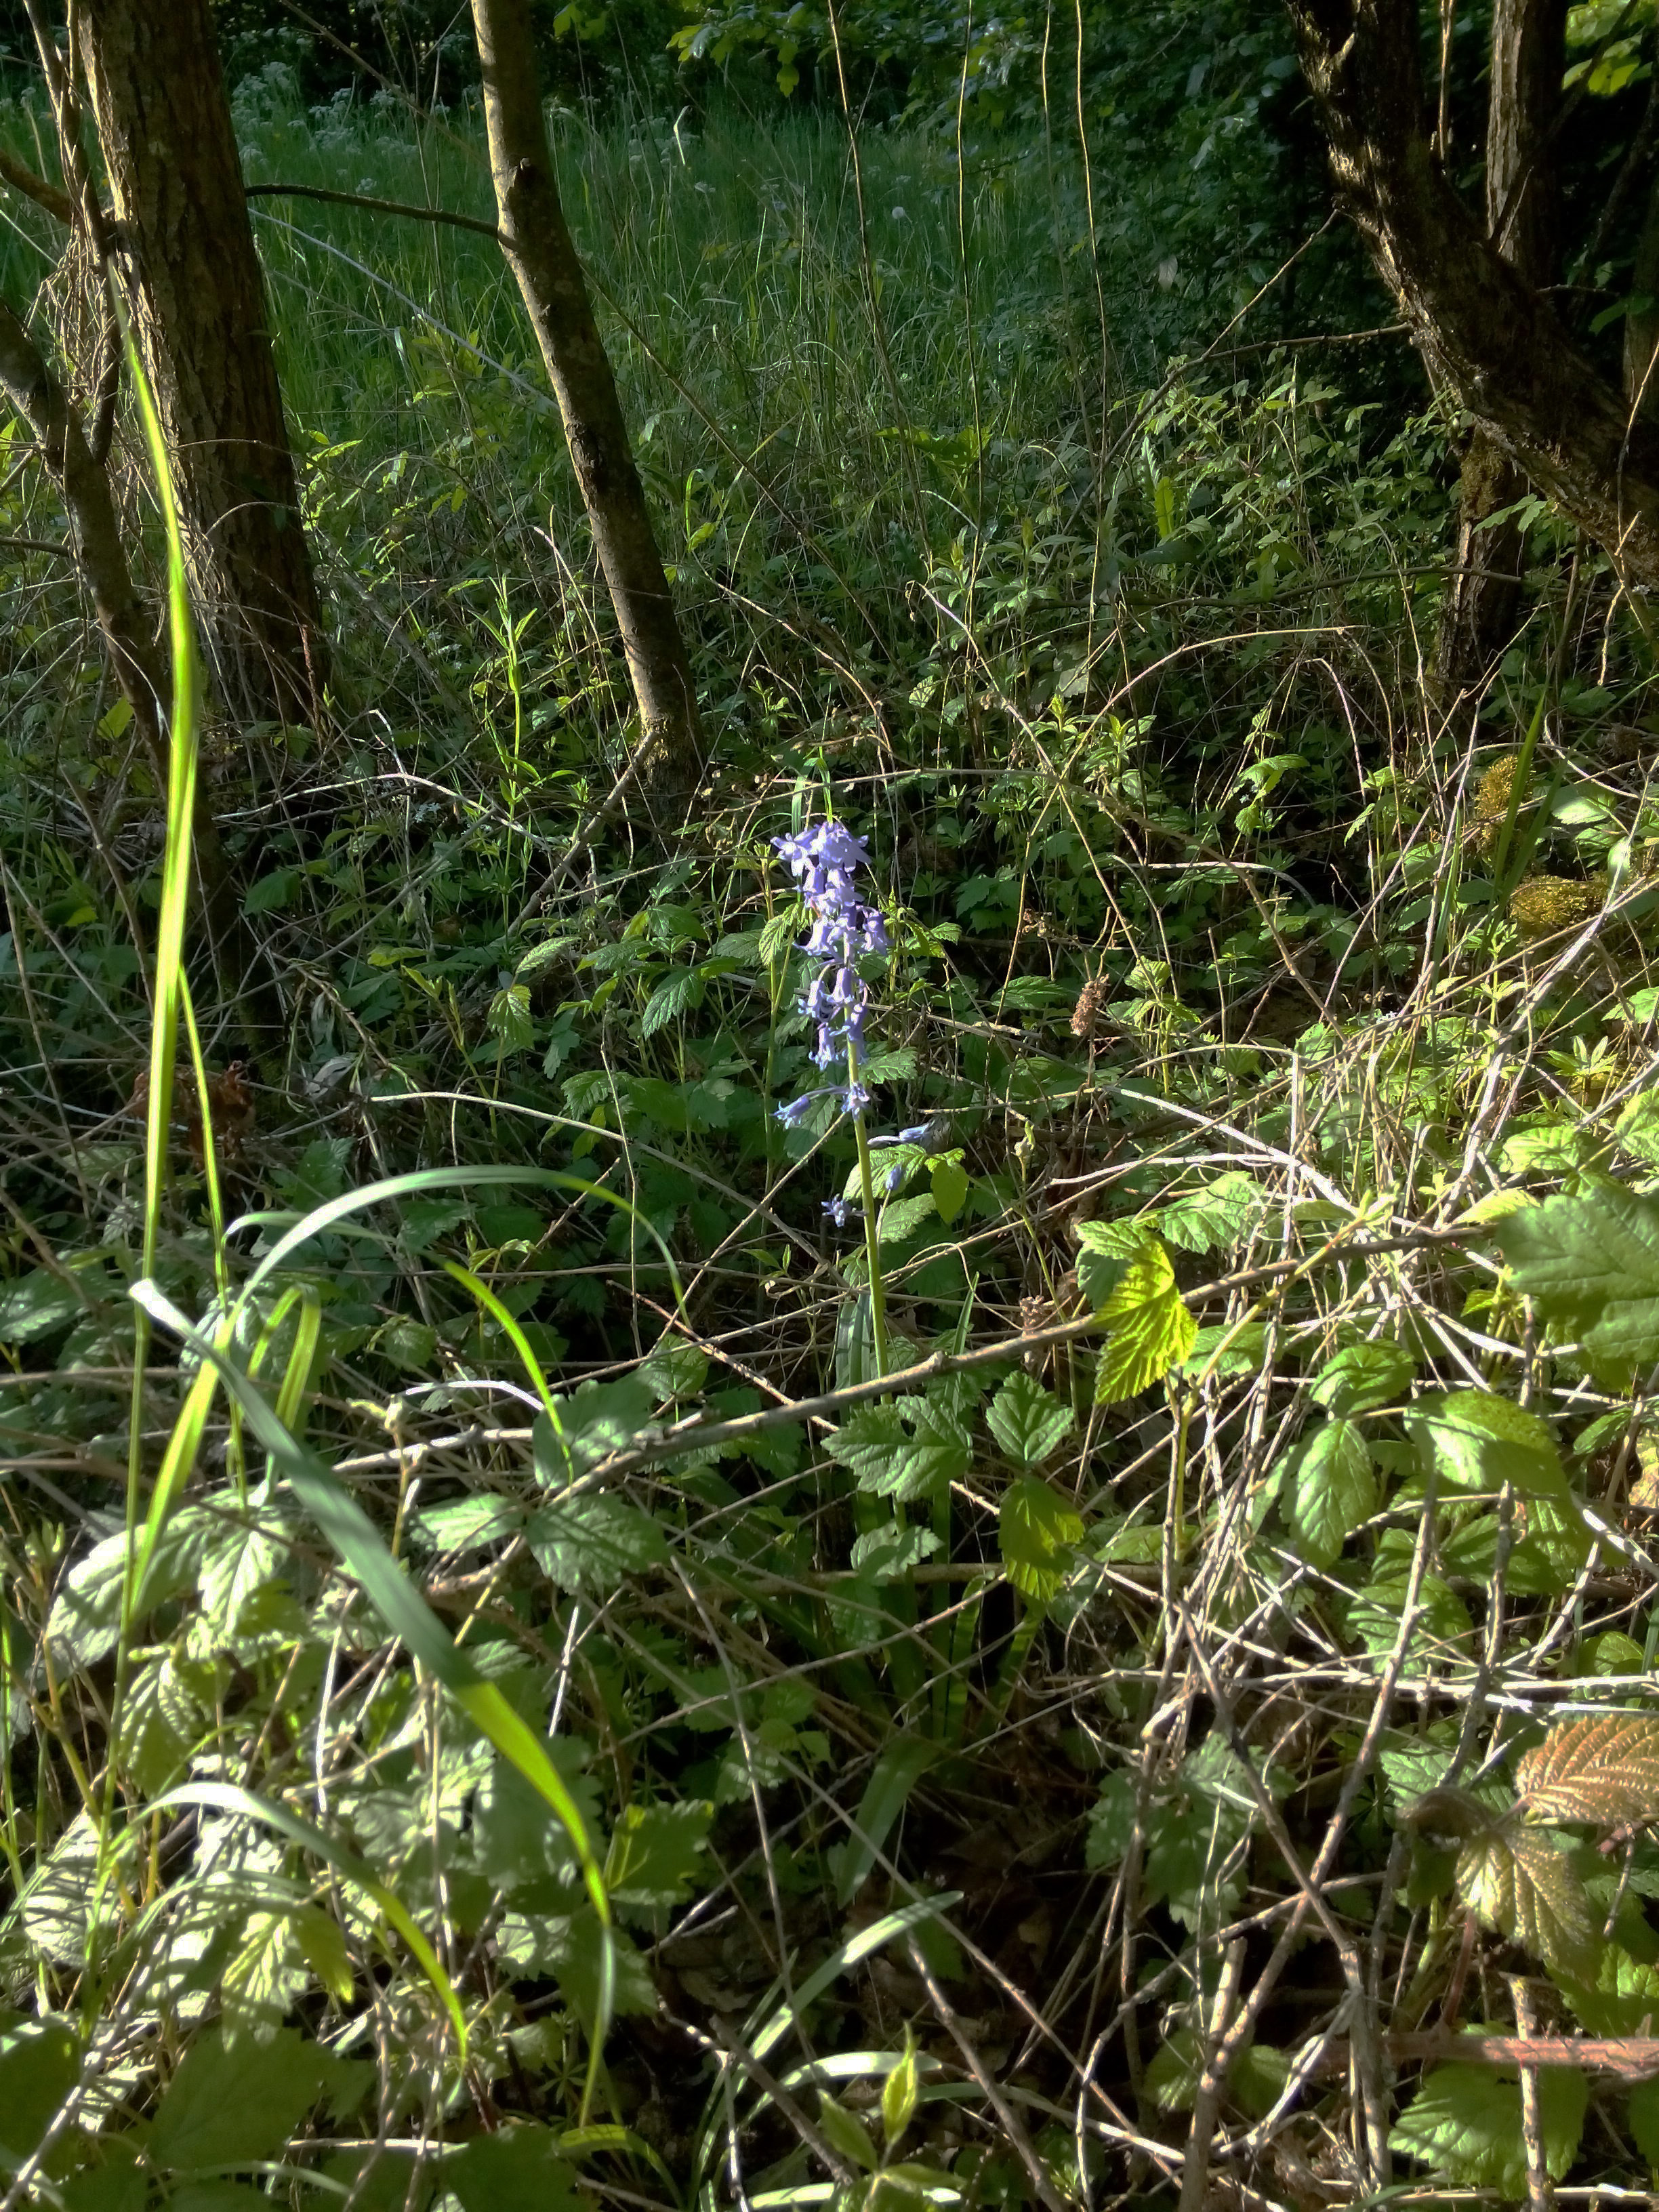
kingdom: Plantae
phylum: Tracheophyta
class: Liliopsida
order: Asparagales
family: Asparagaceae
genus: Hyacinthoides
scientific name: Hyacinthoides hispanica
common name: Spanish bluebell
